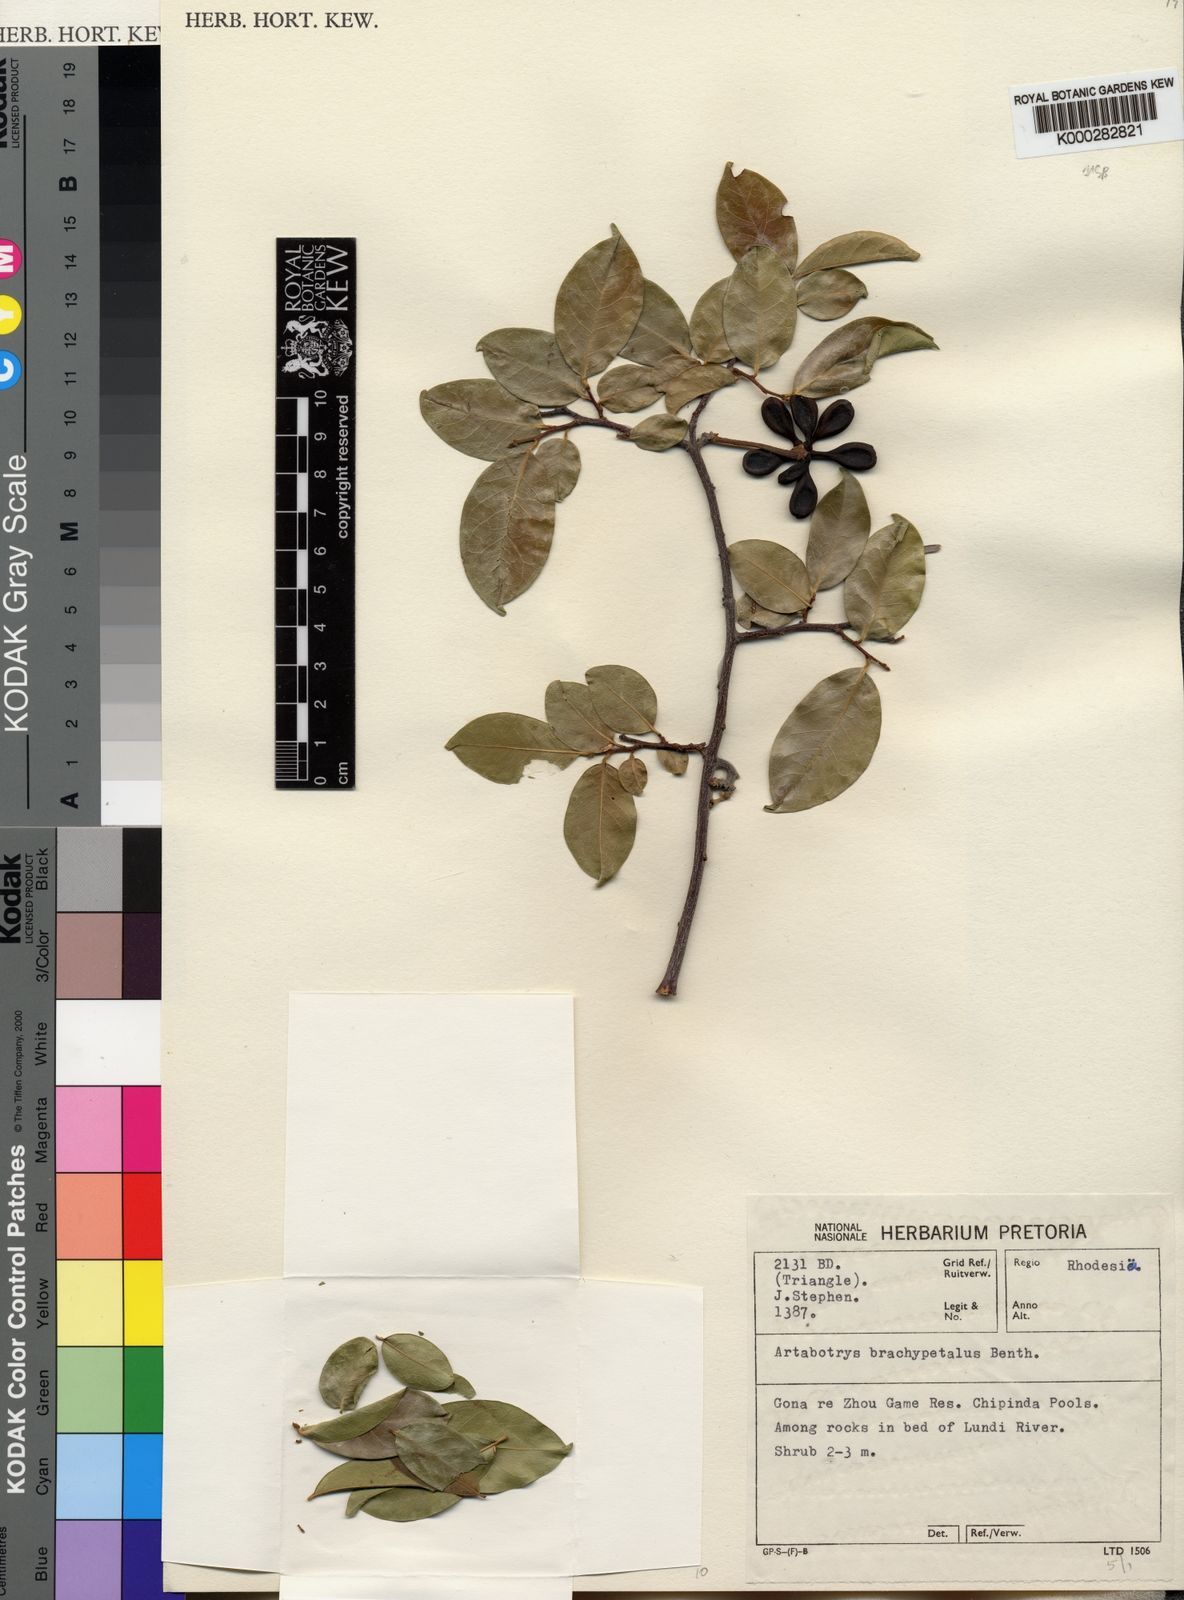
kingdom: Plantae
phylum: Tracheophyta
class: Magnoliopsida
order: Magnoliales
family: Annonaceae
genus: Artabotrys
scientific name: Artabotrys brachypetalus
